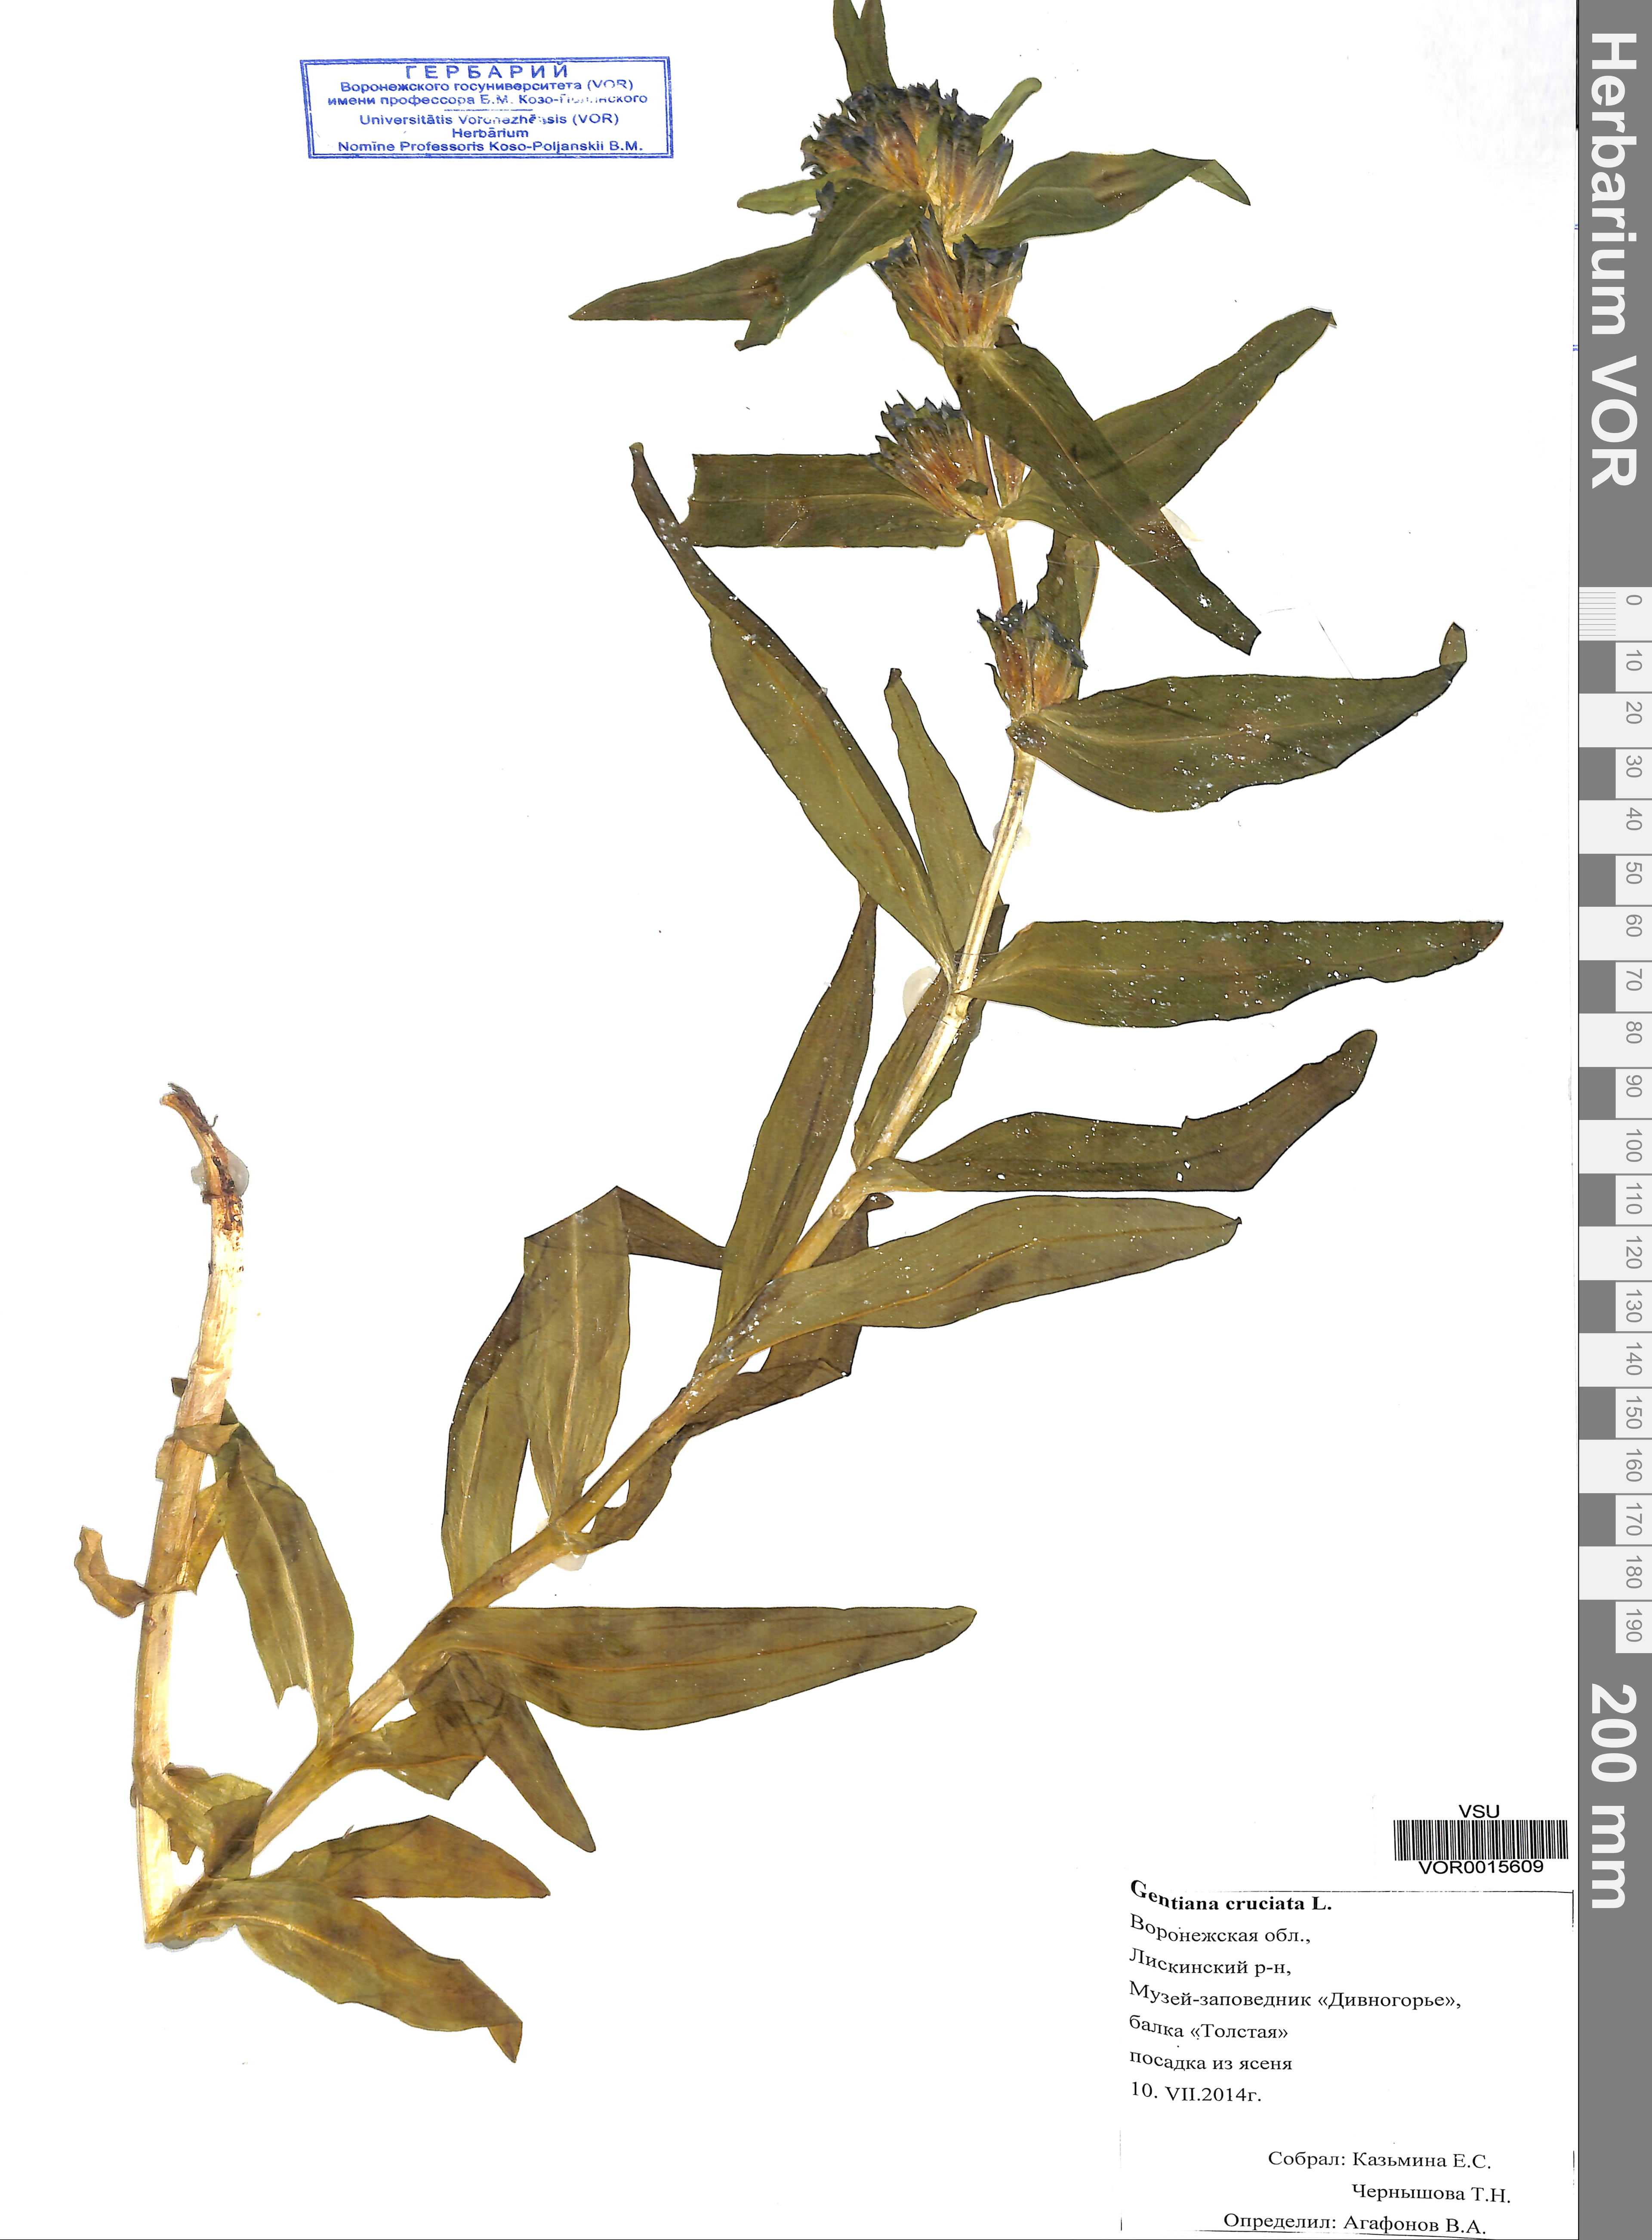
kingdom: Plantae
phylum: Tracheophyta
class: Magnoliopsida
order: Gentianales
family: Gentianaceae
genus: Gentiana
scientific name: Gentiana acaulis
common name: Trumpet gentian
